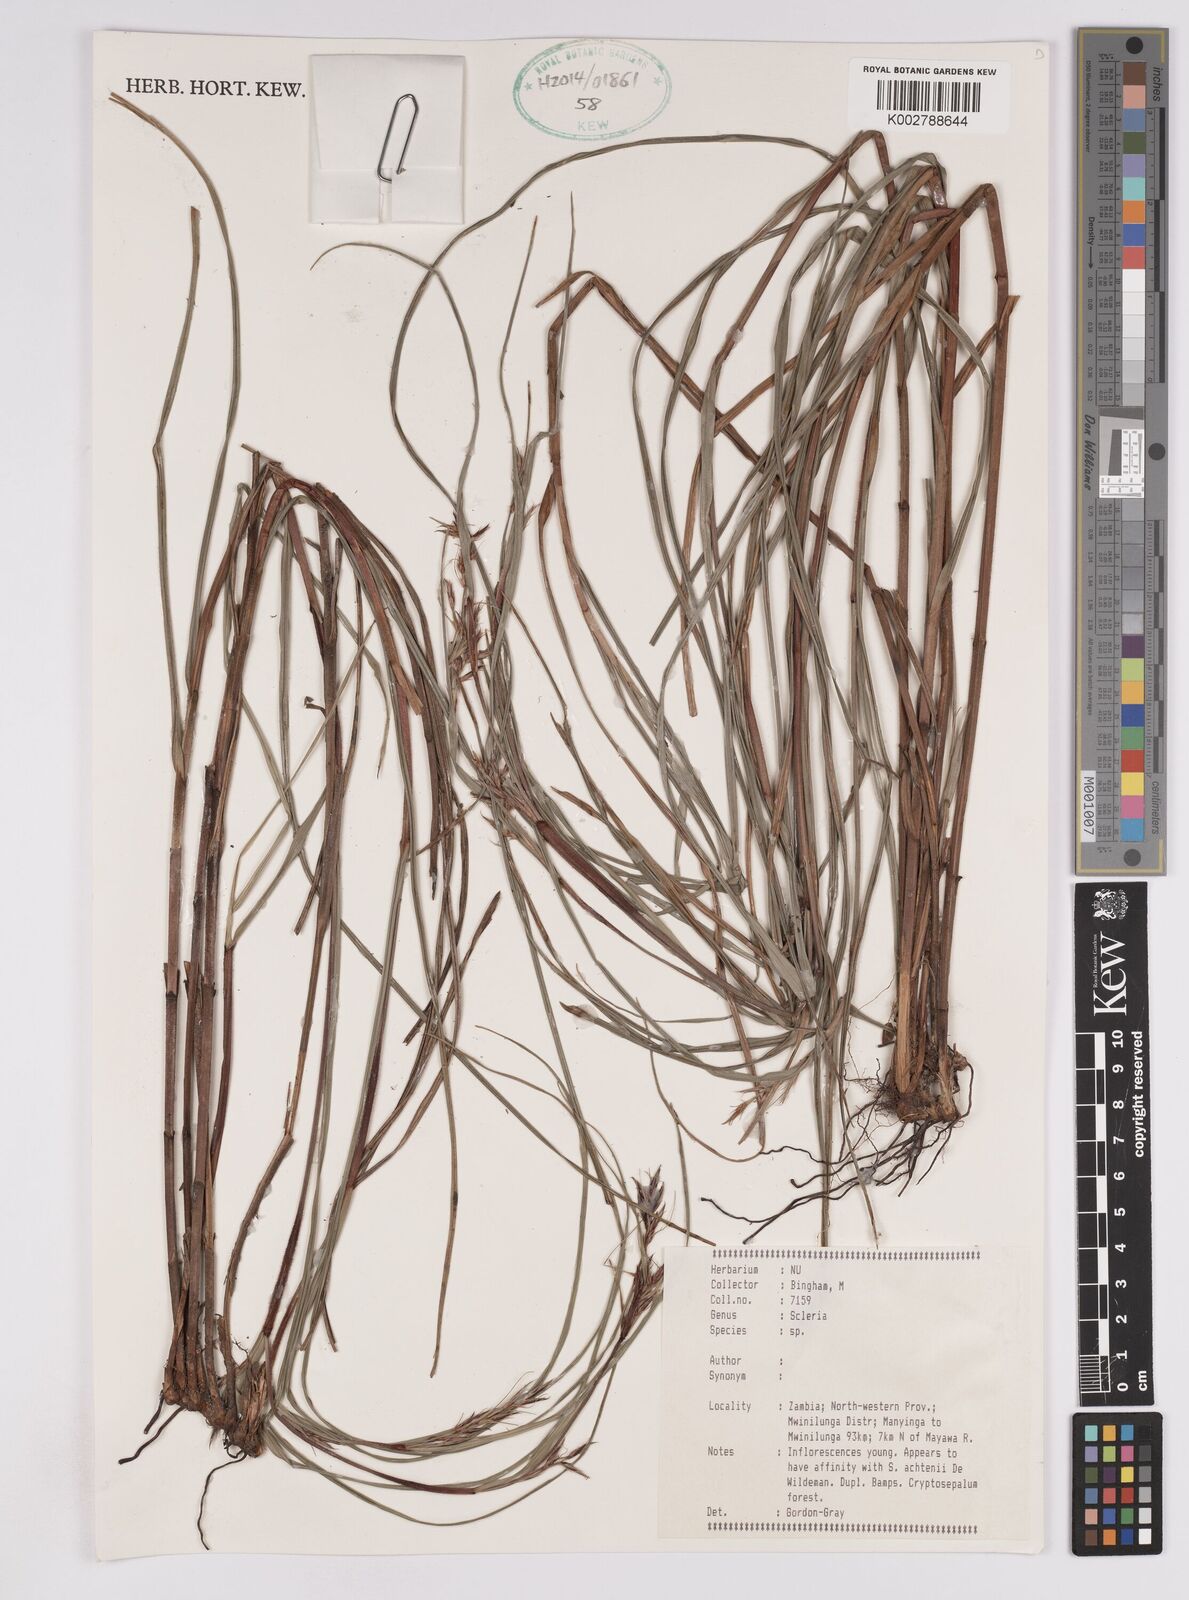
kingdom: Plantae
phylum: Tracheophyta
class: Liliopsida
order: Poales
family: Cyperaceae
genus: Scleria
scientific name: Scleria
